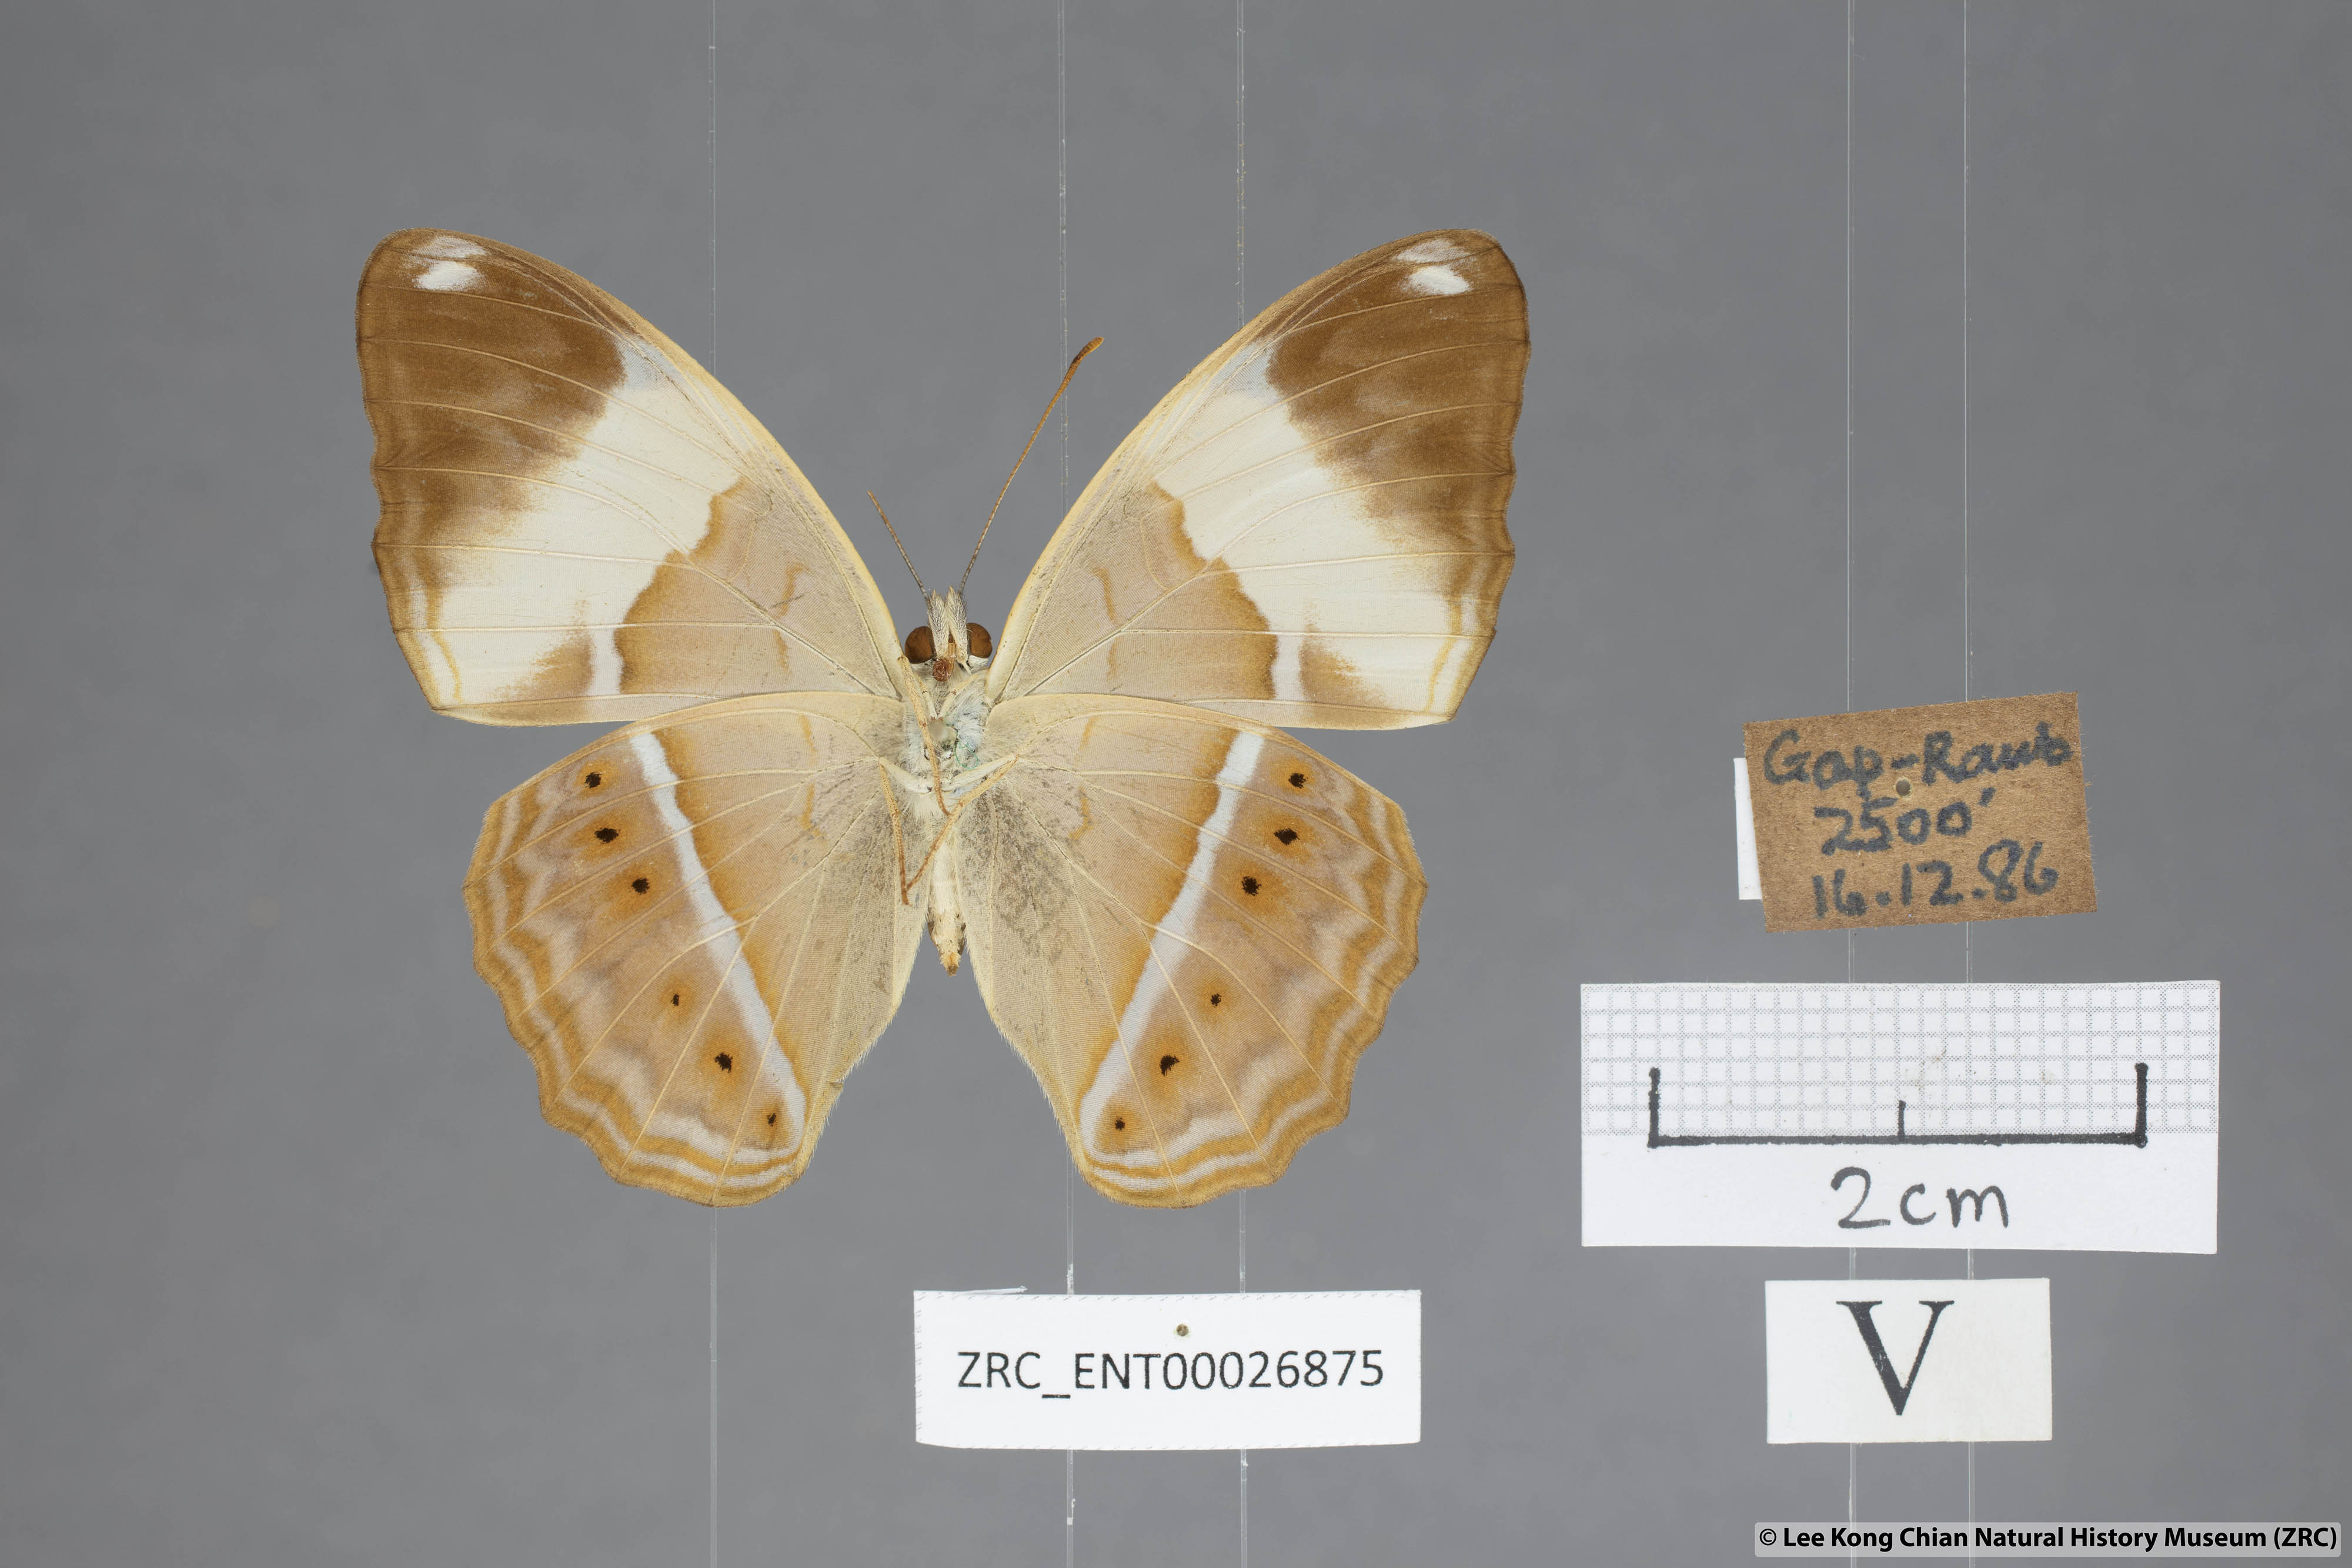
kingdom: Animalia
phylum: Arthropoda
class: Insecta
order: Lepidoptera
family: Nymphalidae
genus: Cirrochroa
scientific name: Cirrochroa orissa
